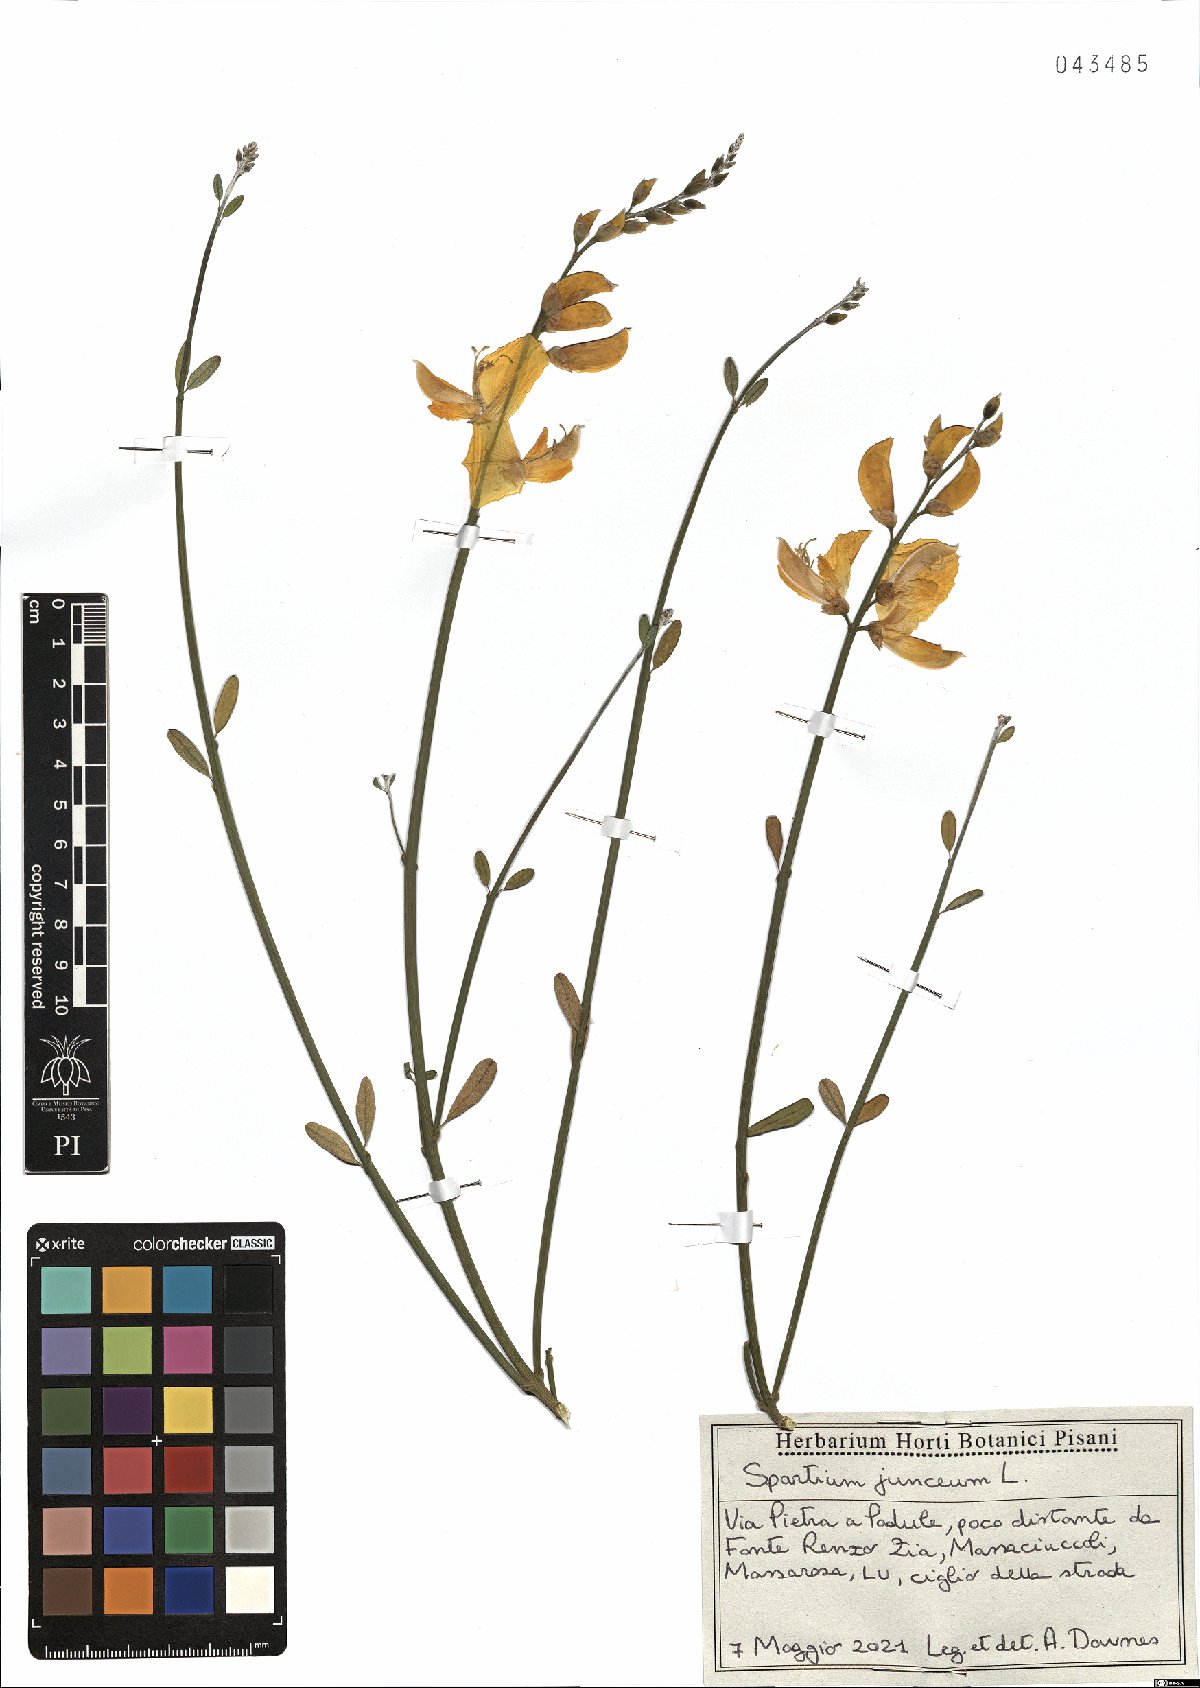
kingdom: Plantae
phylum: Tracheophyta
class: Magnoliopsida
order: Fabales
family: Fabaceae
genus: Spartium
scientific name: Spartium junceum
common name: Spanish broom
